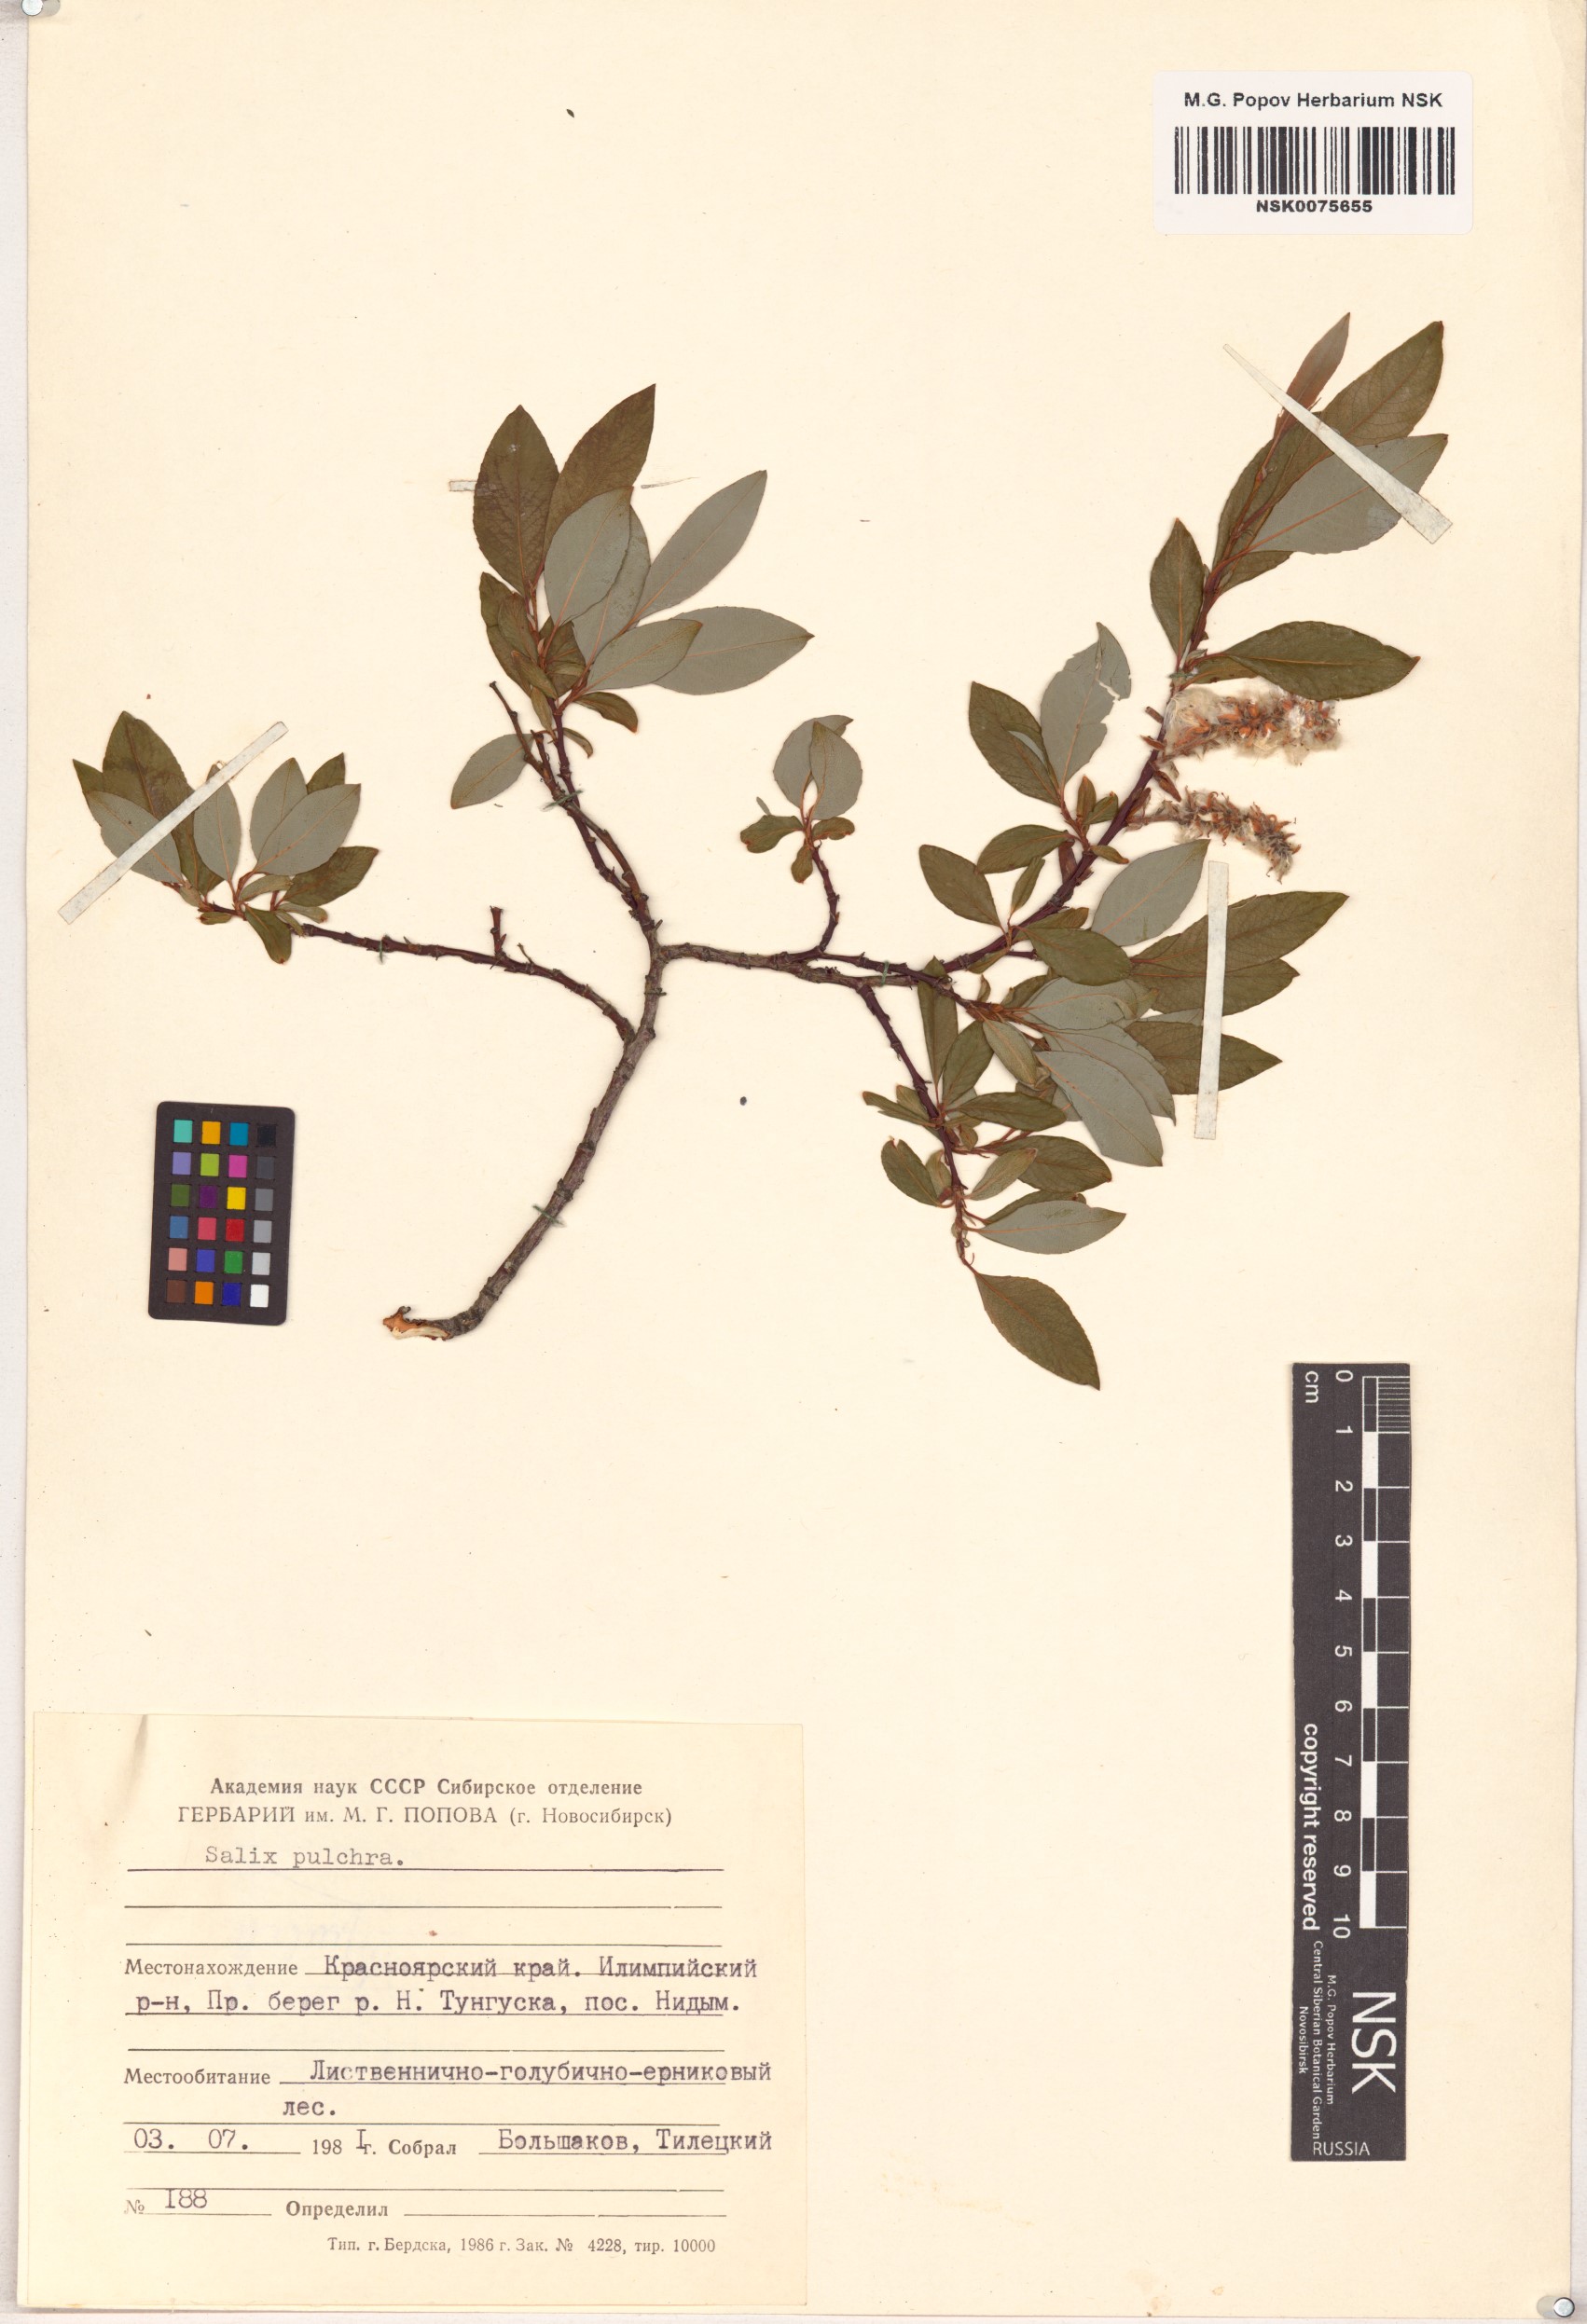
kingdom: Plantae
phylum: Tracheophyta
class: Magnoliopsida
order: Malpighiales
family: Salicaceae
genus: Salix
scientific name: Salix pulchra
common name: Diamond-leaved willow
